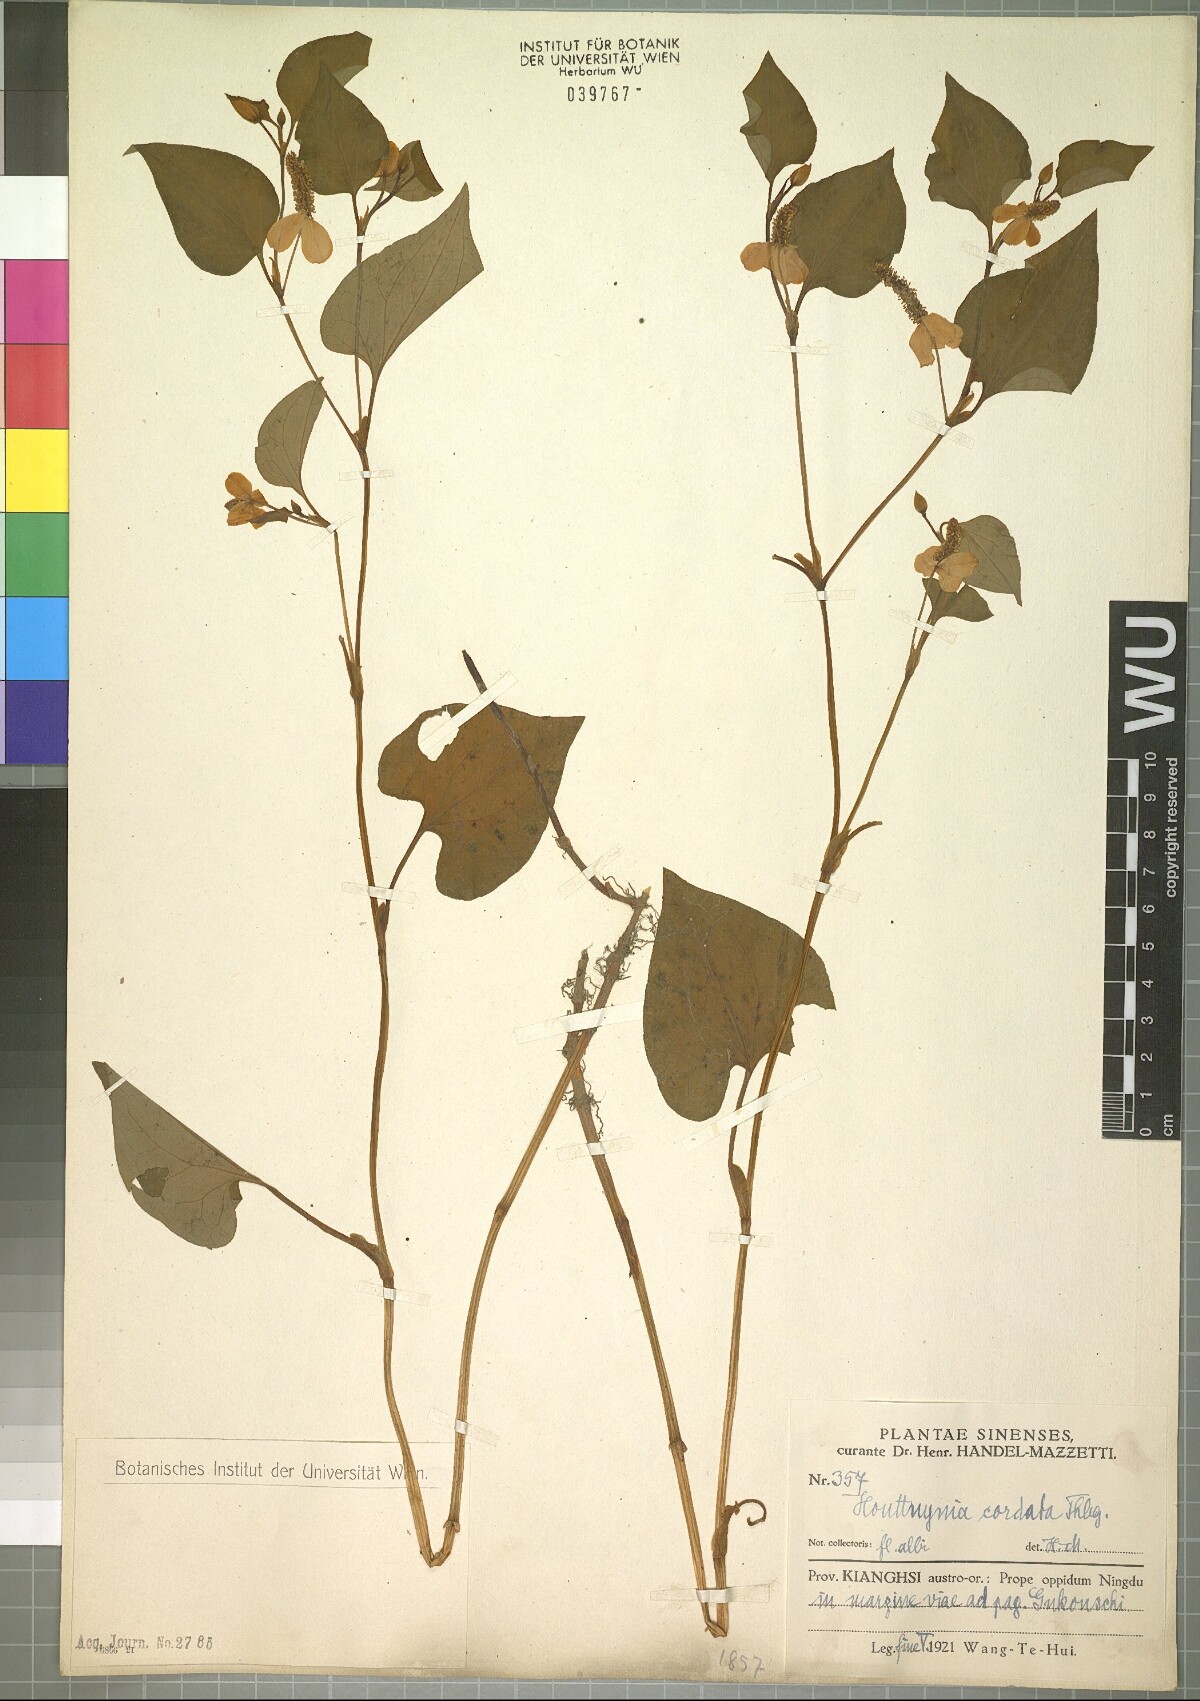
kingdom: Plantae
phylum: Tracheophyta
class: Magnoliopsida
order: Piperales
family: Saururaceae
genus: Houttuynia
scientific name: Houttuynia cordata
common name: Chameleon
